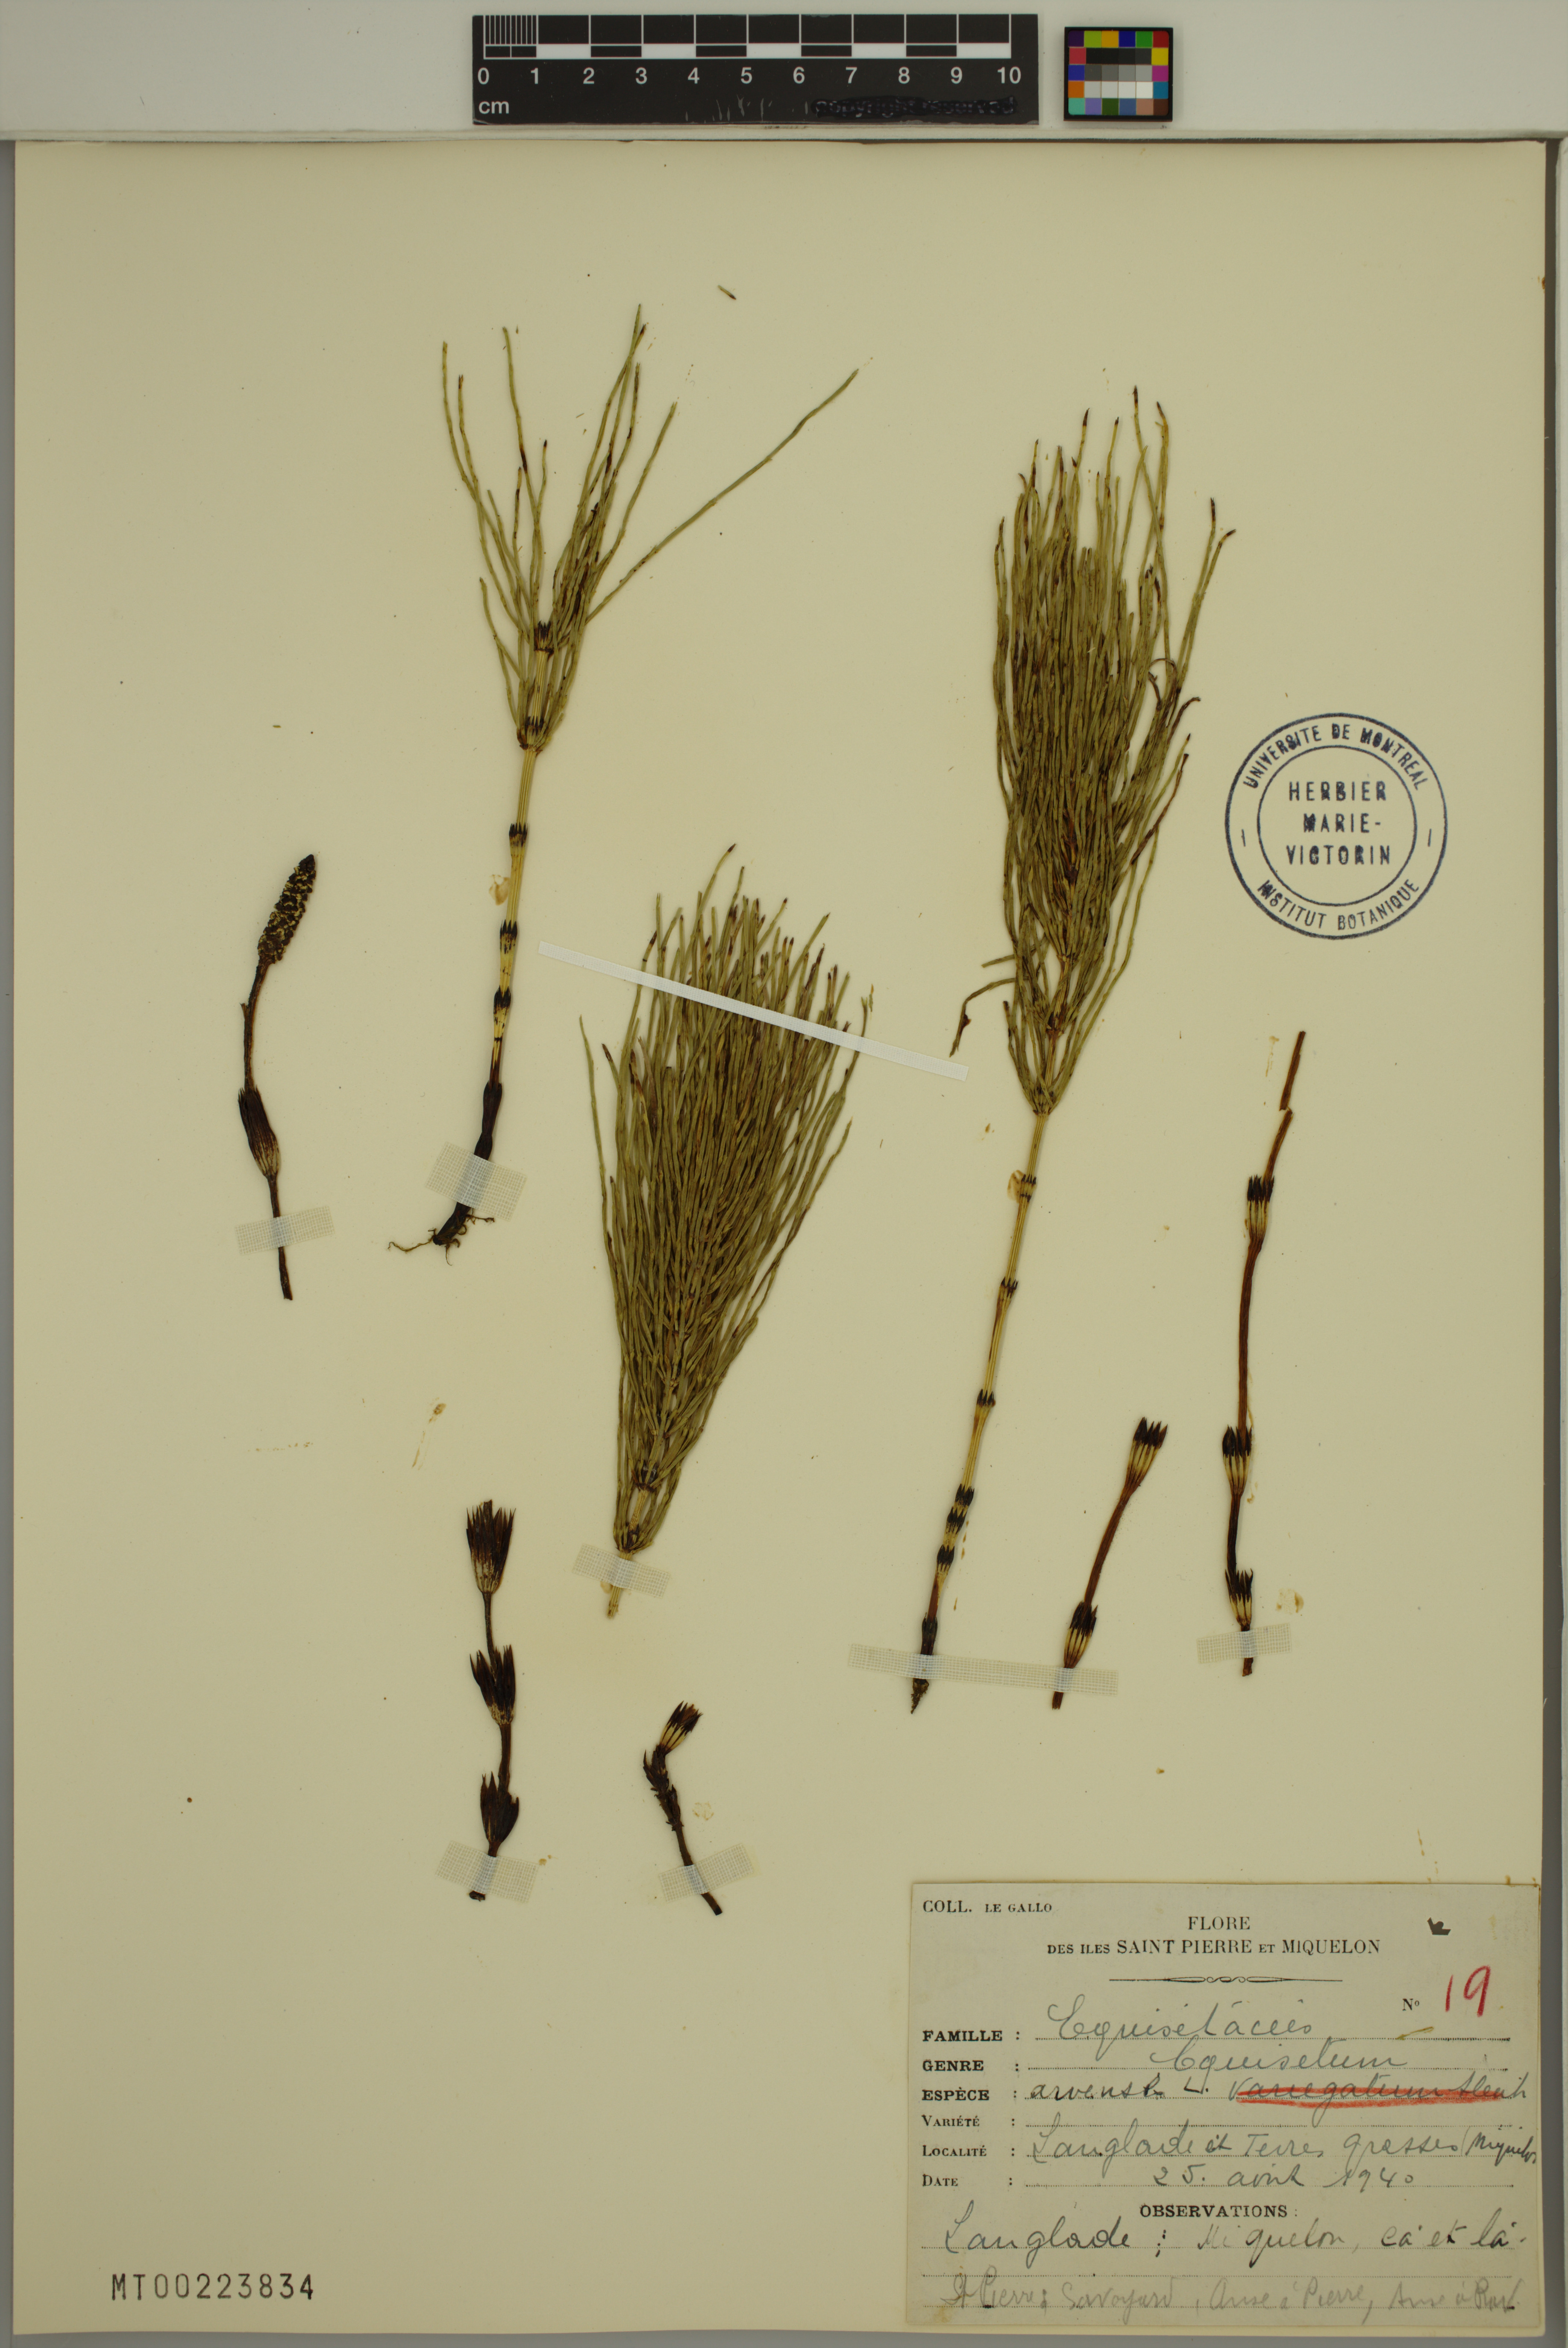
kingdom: Plantae
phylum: Tracheophyta
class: Polypodiopsida
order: Equisetales
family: Equisetaceae
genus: Equisetum
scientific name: Equisetum arvense
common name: Field horsetail
